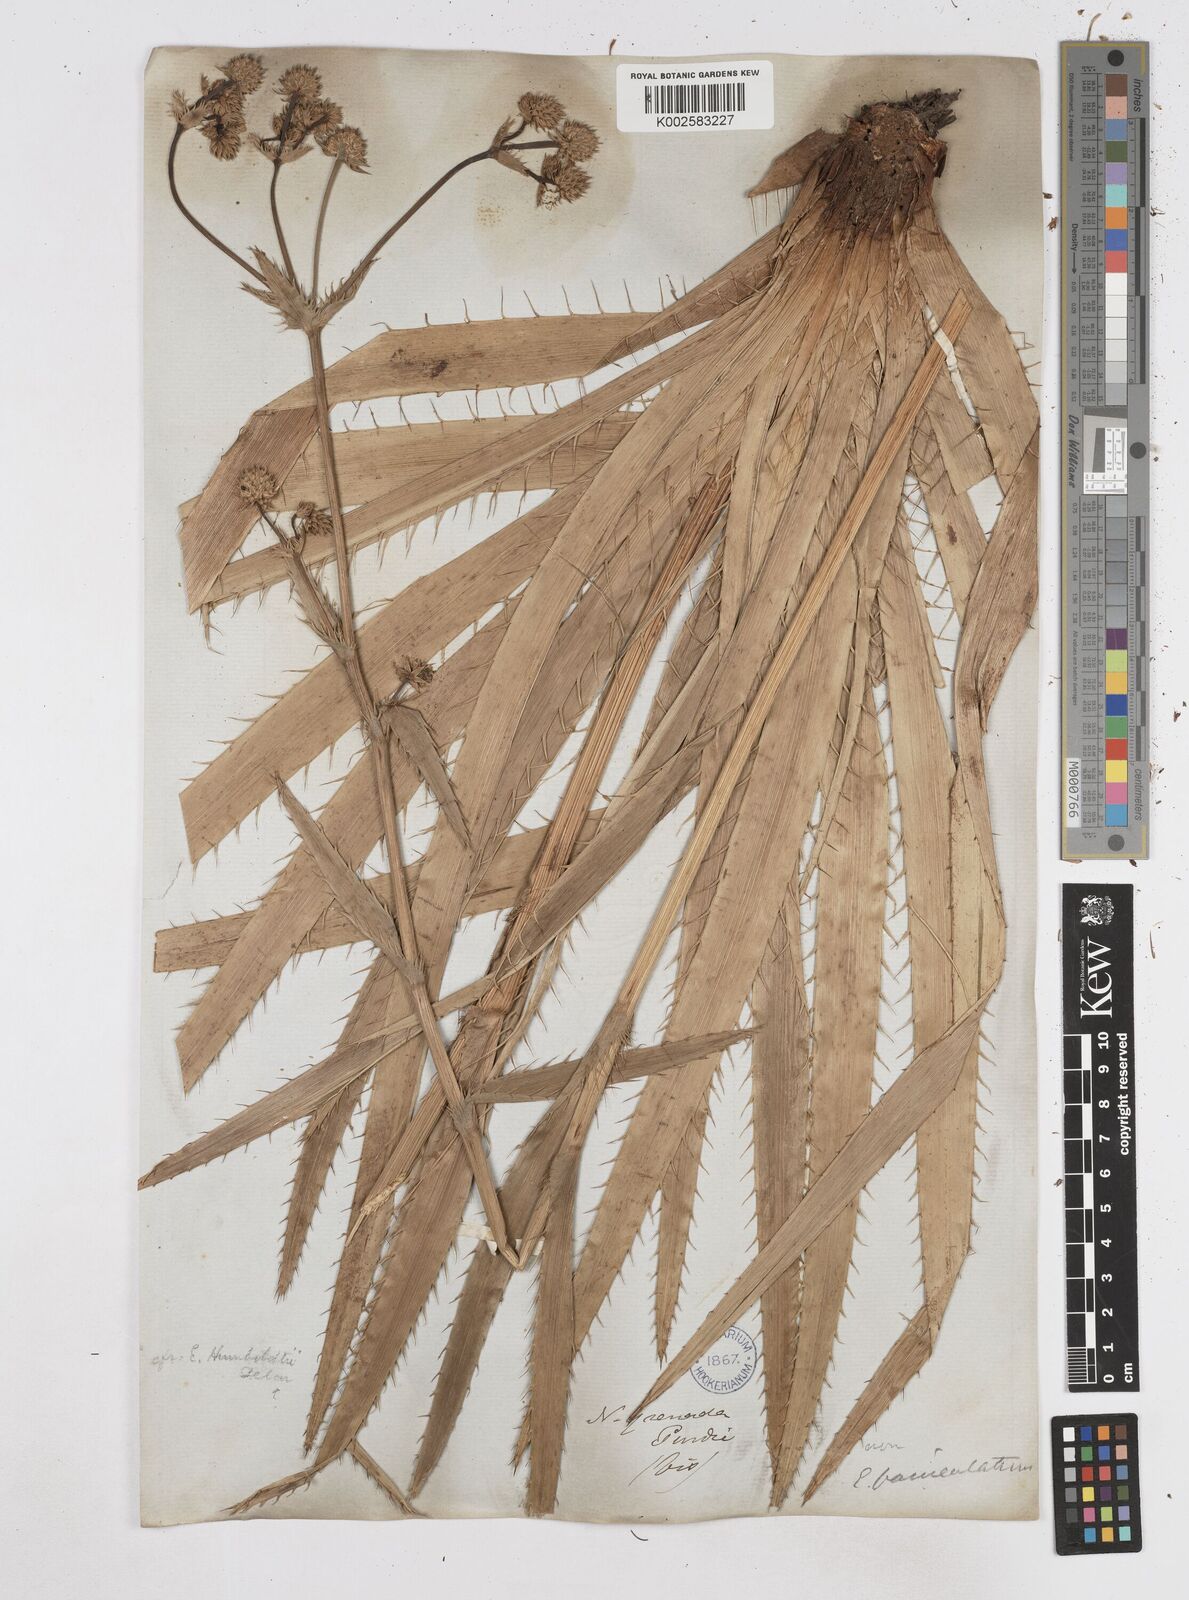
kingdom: Plantae
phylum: Tracheophyta
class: Magnoliopsida
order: Apiales
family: Apiaceae
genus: Eryngium
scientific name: Eryngium humboldtii
